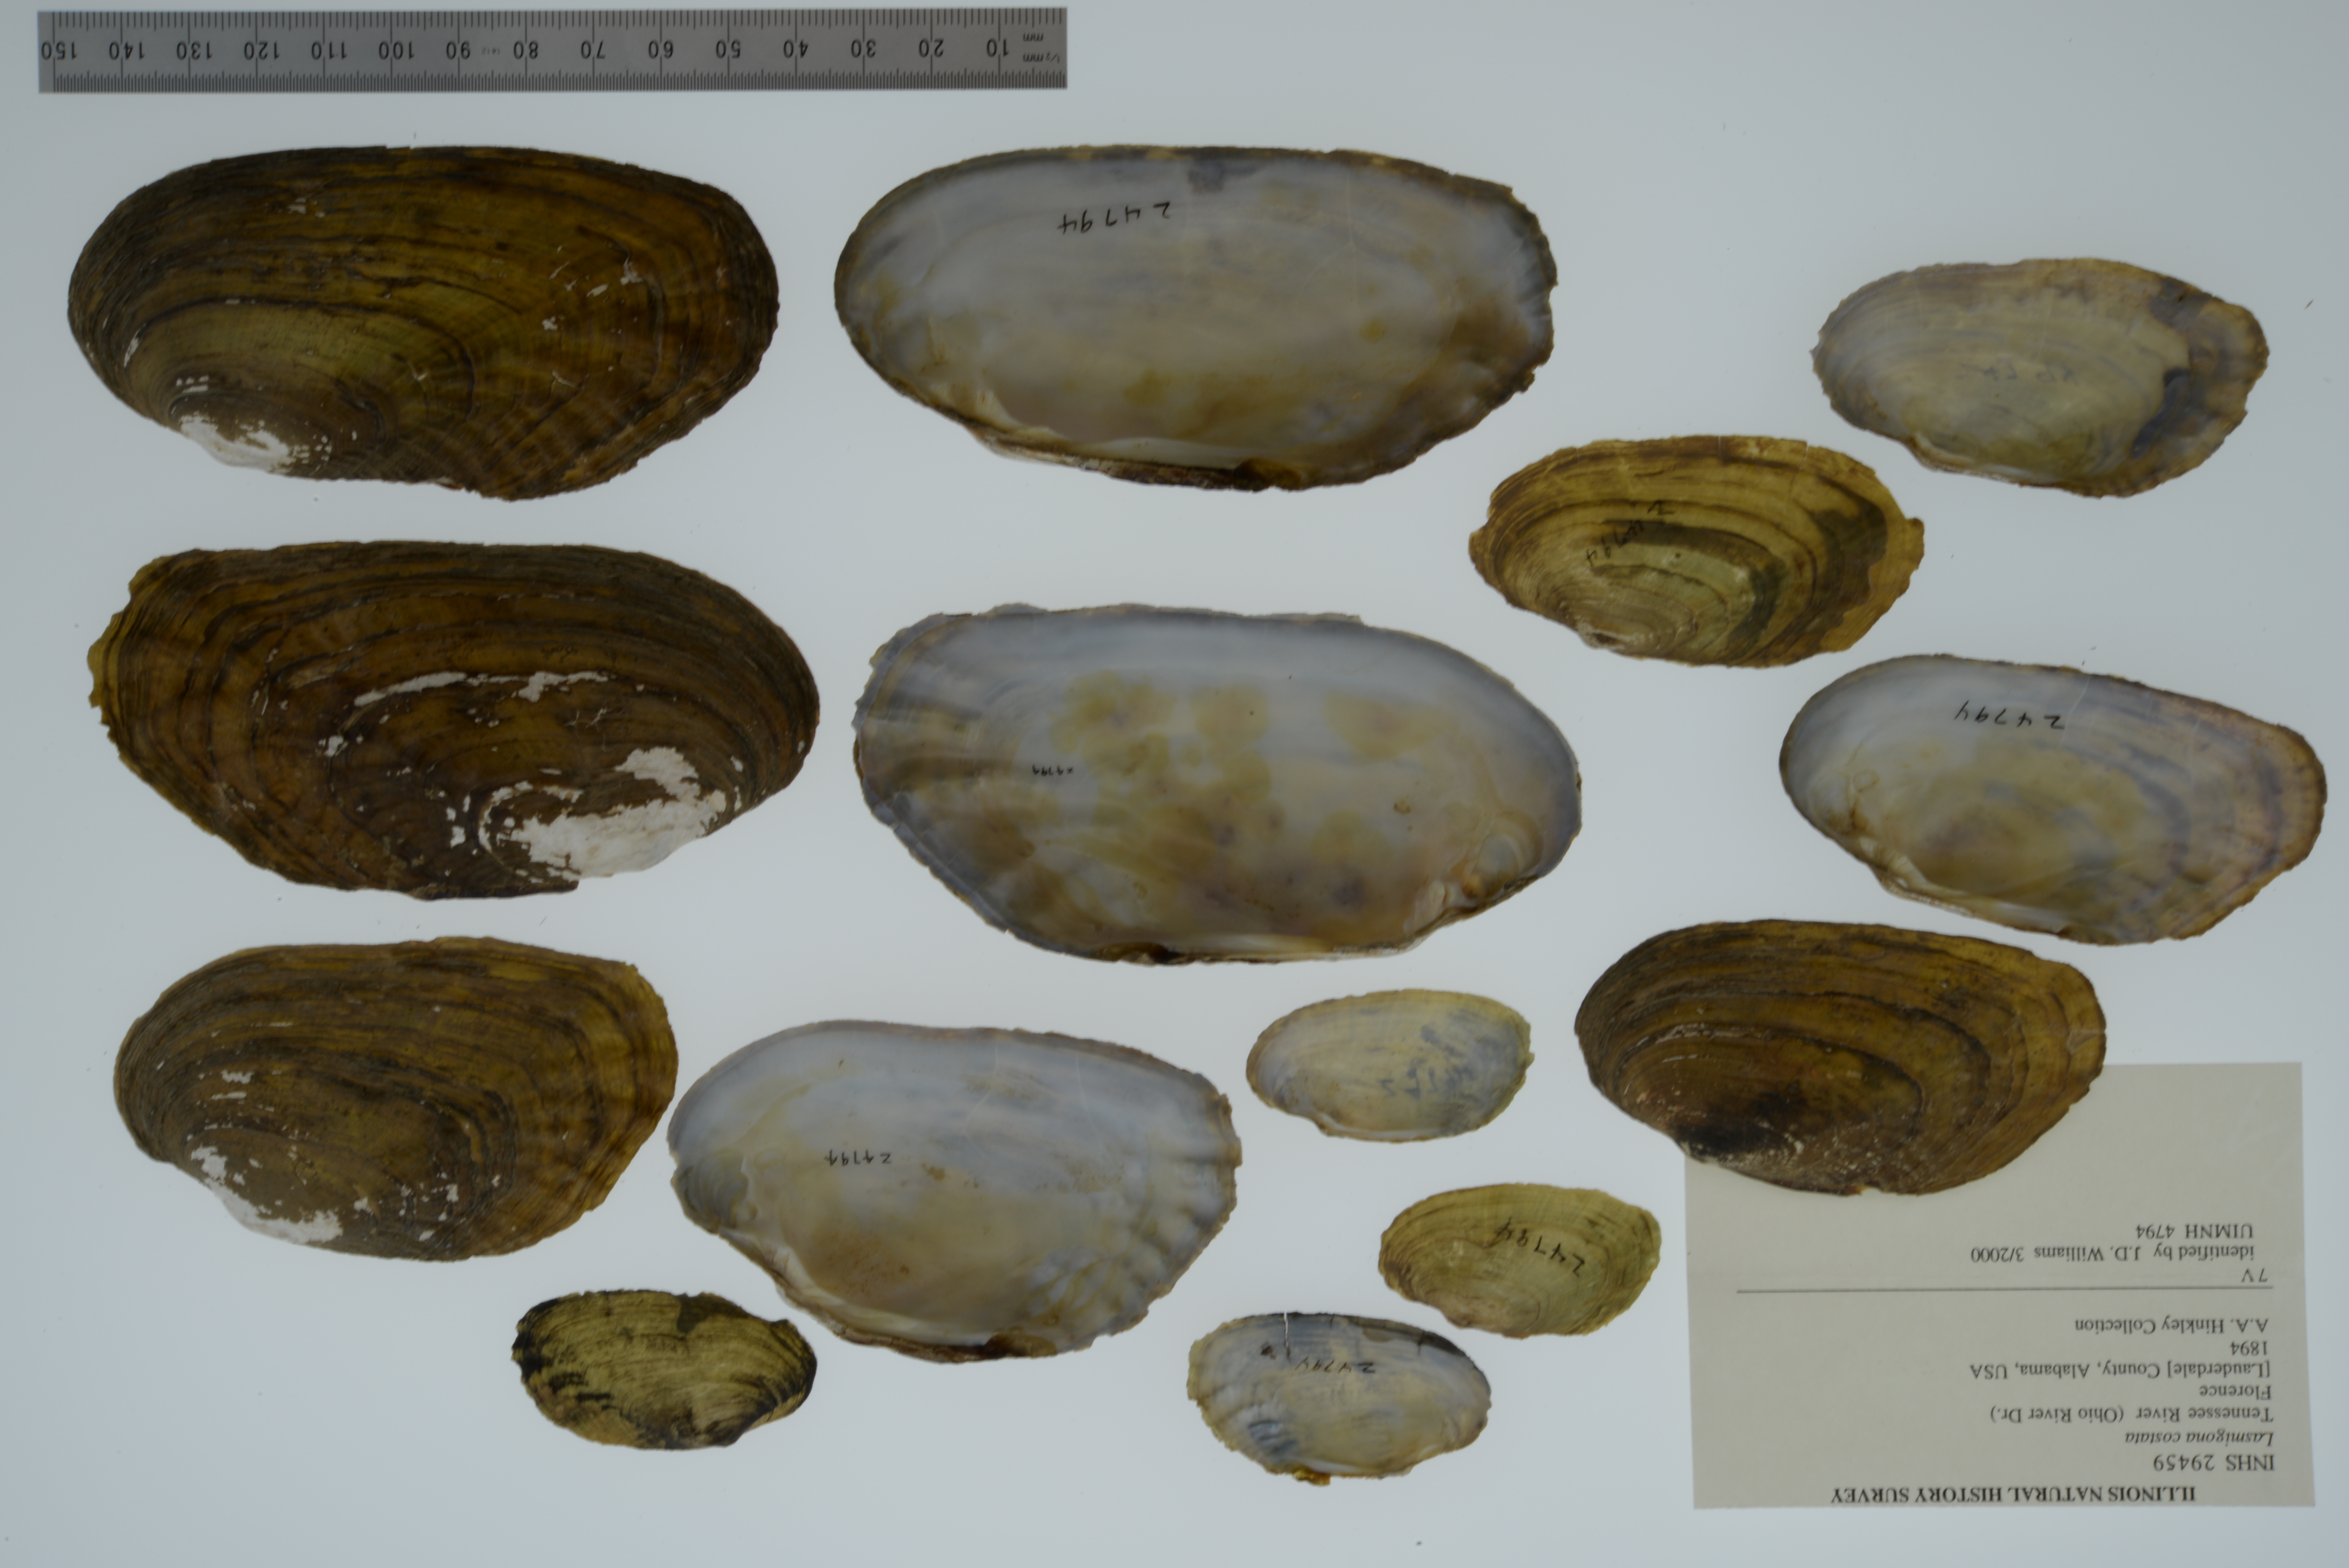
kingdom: Animalia
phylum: Mollusca
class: Bivalvia
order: Unionida
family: Unionidae
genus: Lasmigona
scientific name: Lasmigona costata
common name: Flutedshell
